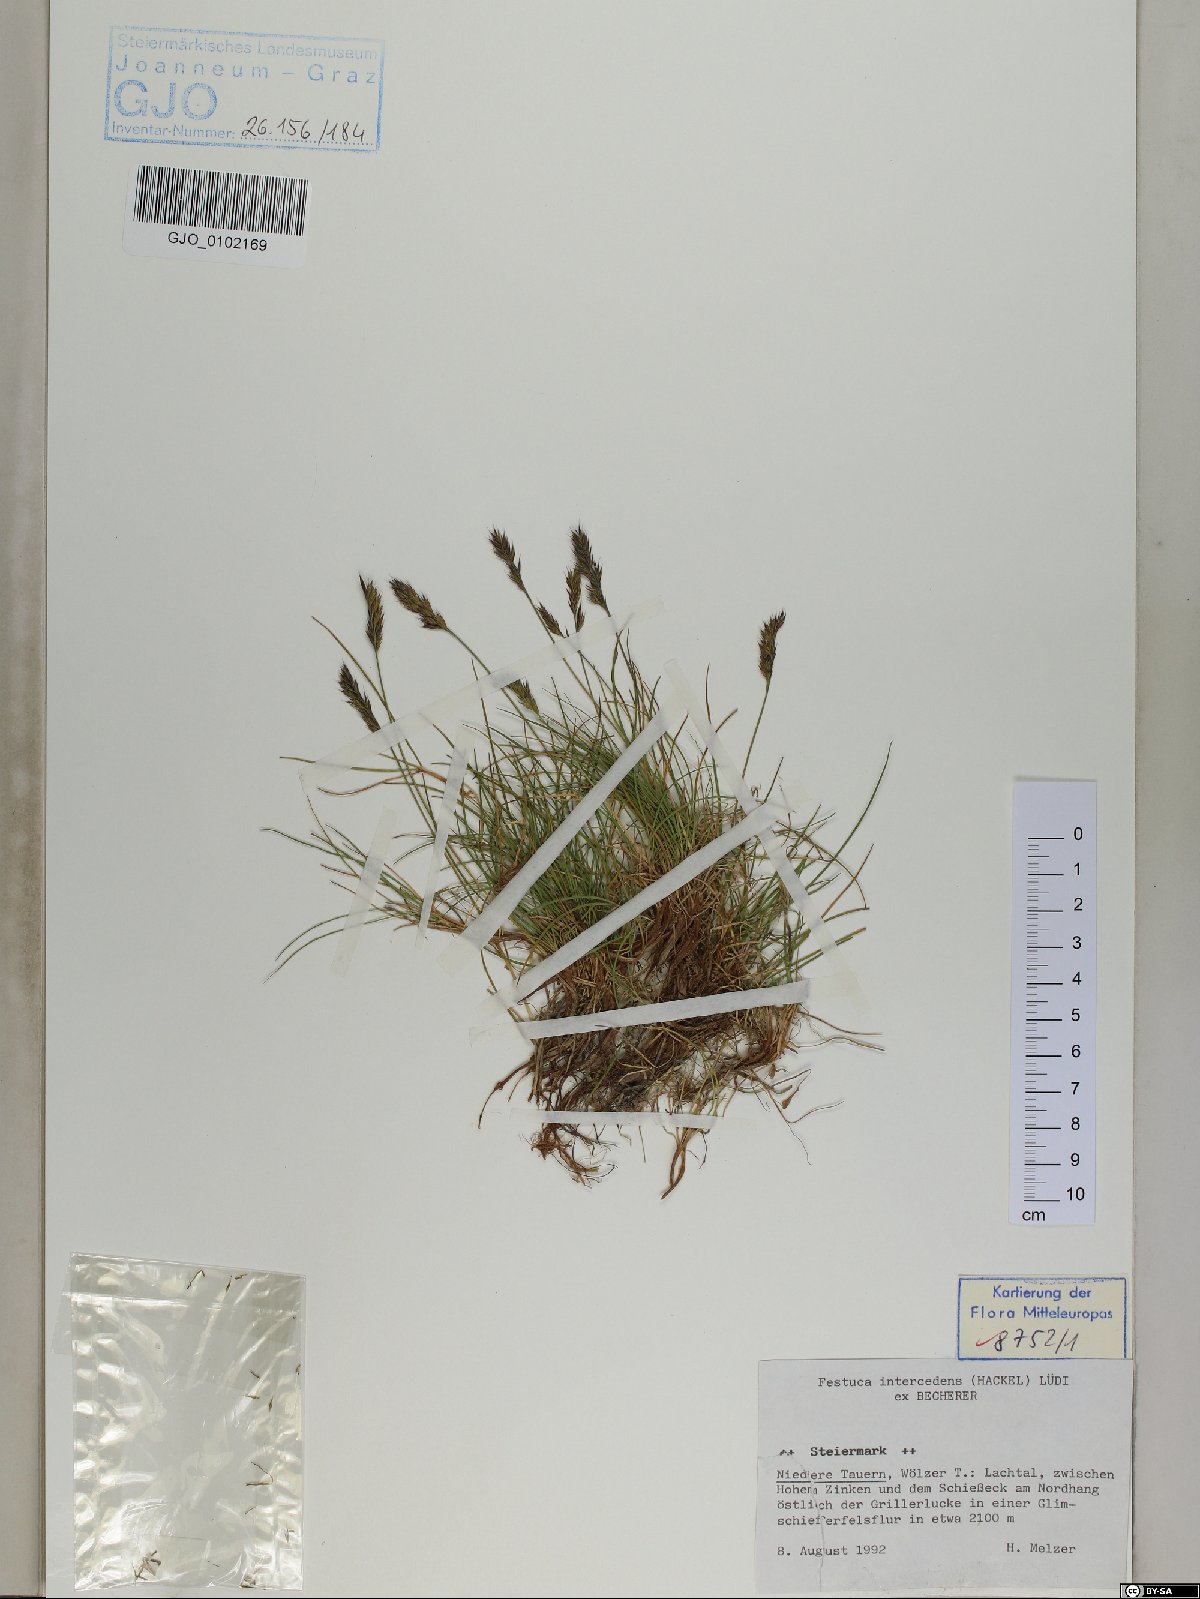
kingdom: Plantae
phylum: Tracheophyta
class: Liliopsida
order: Poales
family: Poaceae
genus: Festuca
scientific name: Festuca intercedens
